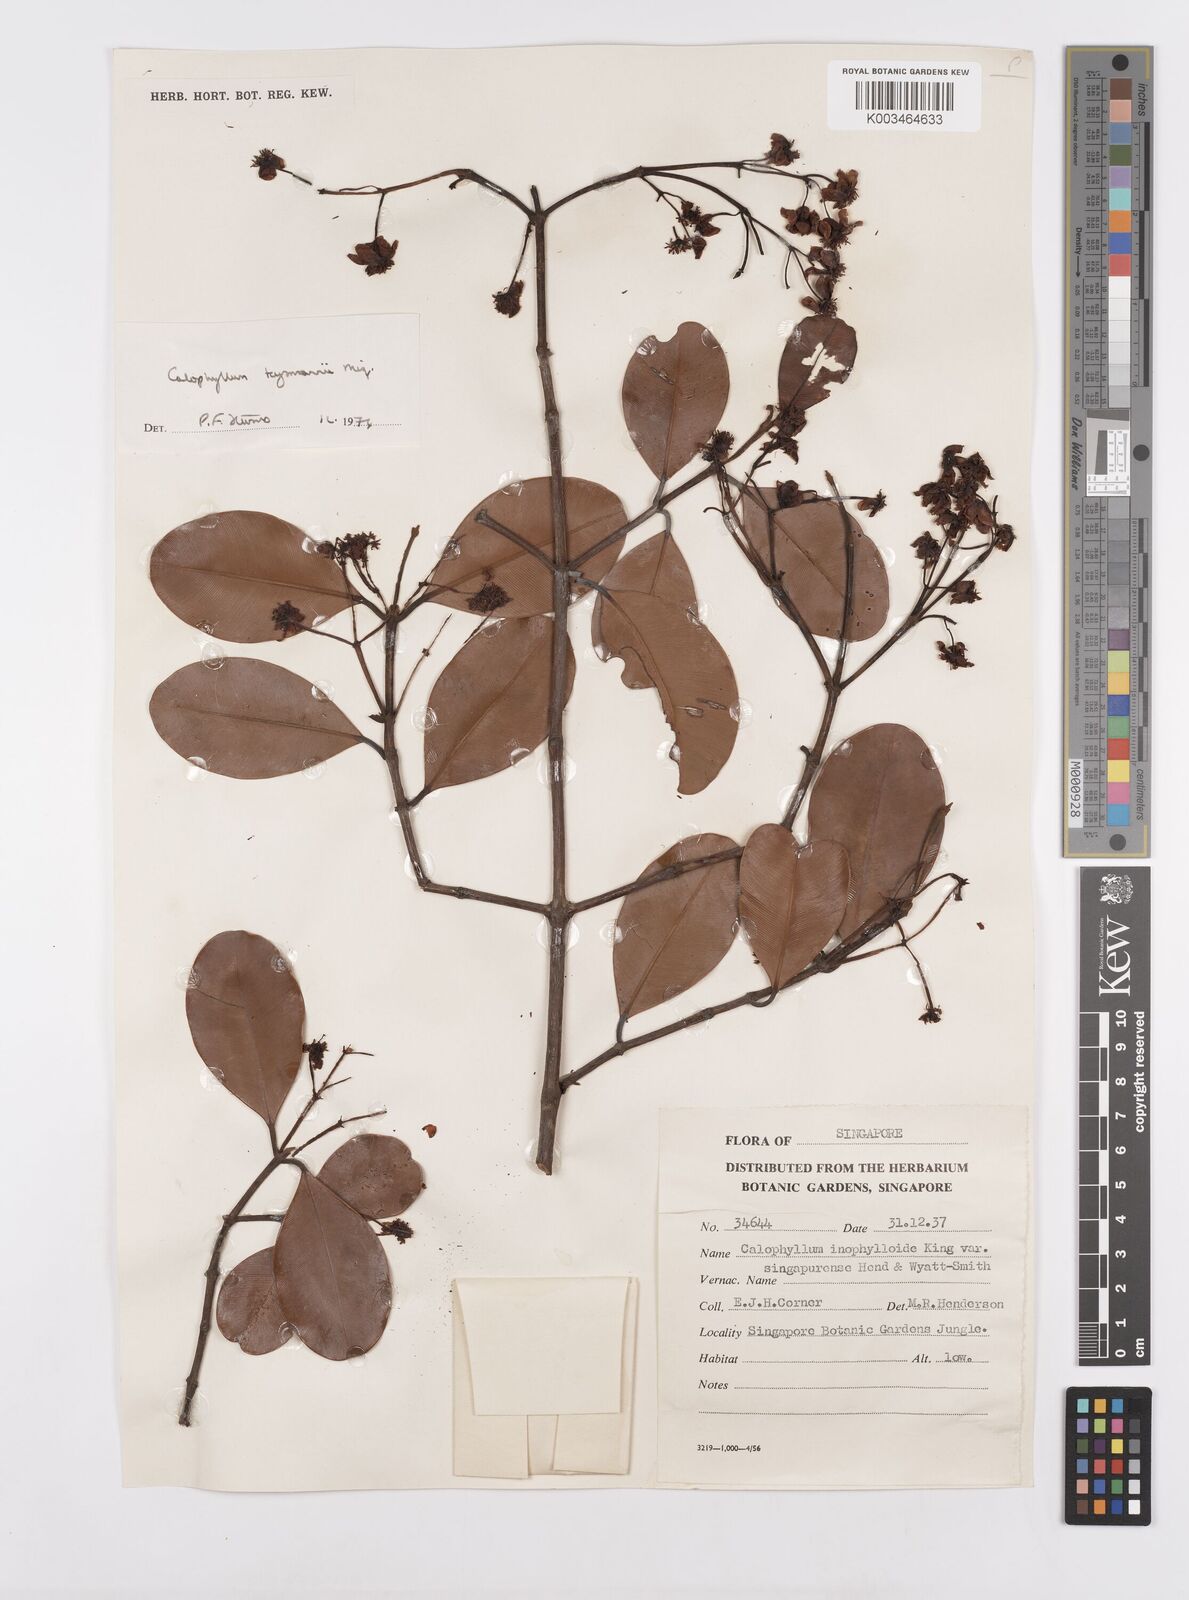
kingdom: Plantae
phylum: Tracheophyta
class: Magnoliopsida
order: Malpighiales
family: Calophyllaceae
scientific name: Calophyllaceae
